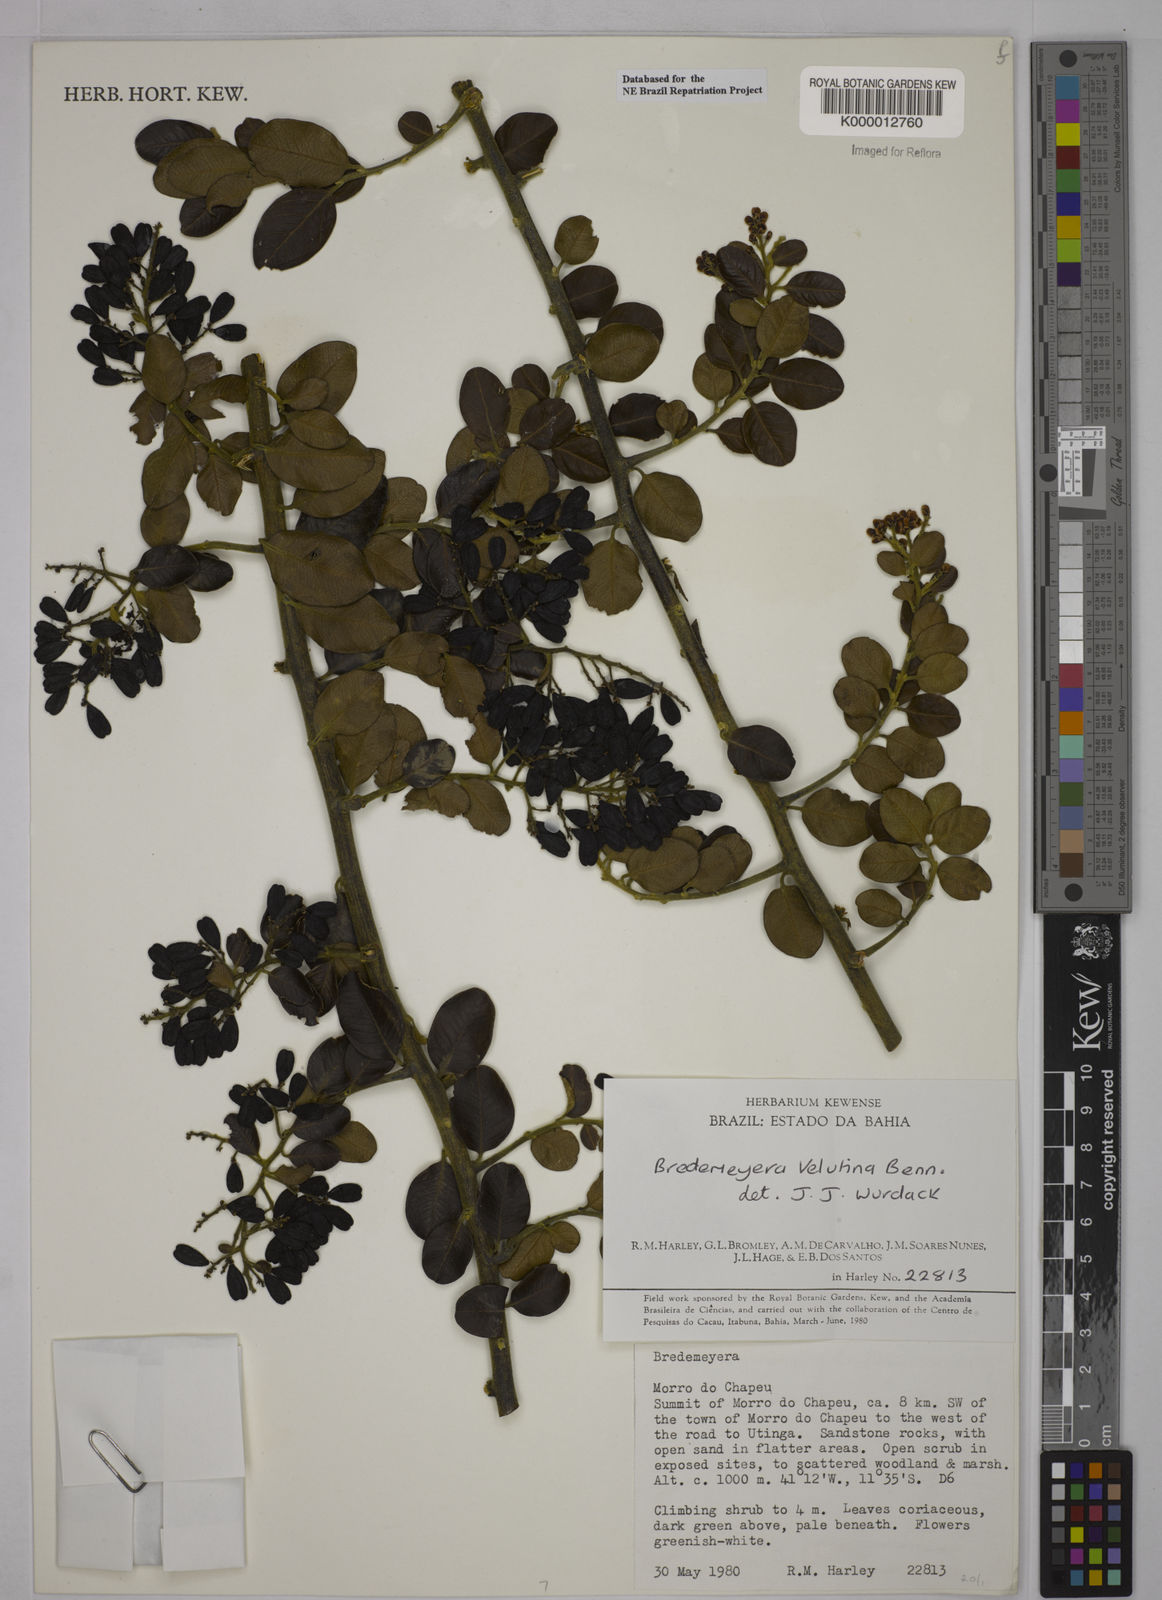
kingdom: Plantae
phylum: Tracheophyta
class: Magnoliopsida
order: Fabales
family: Polygalaceae
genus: Bredemeyera
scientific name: Bredemeyera hebeclada
